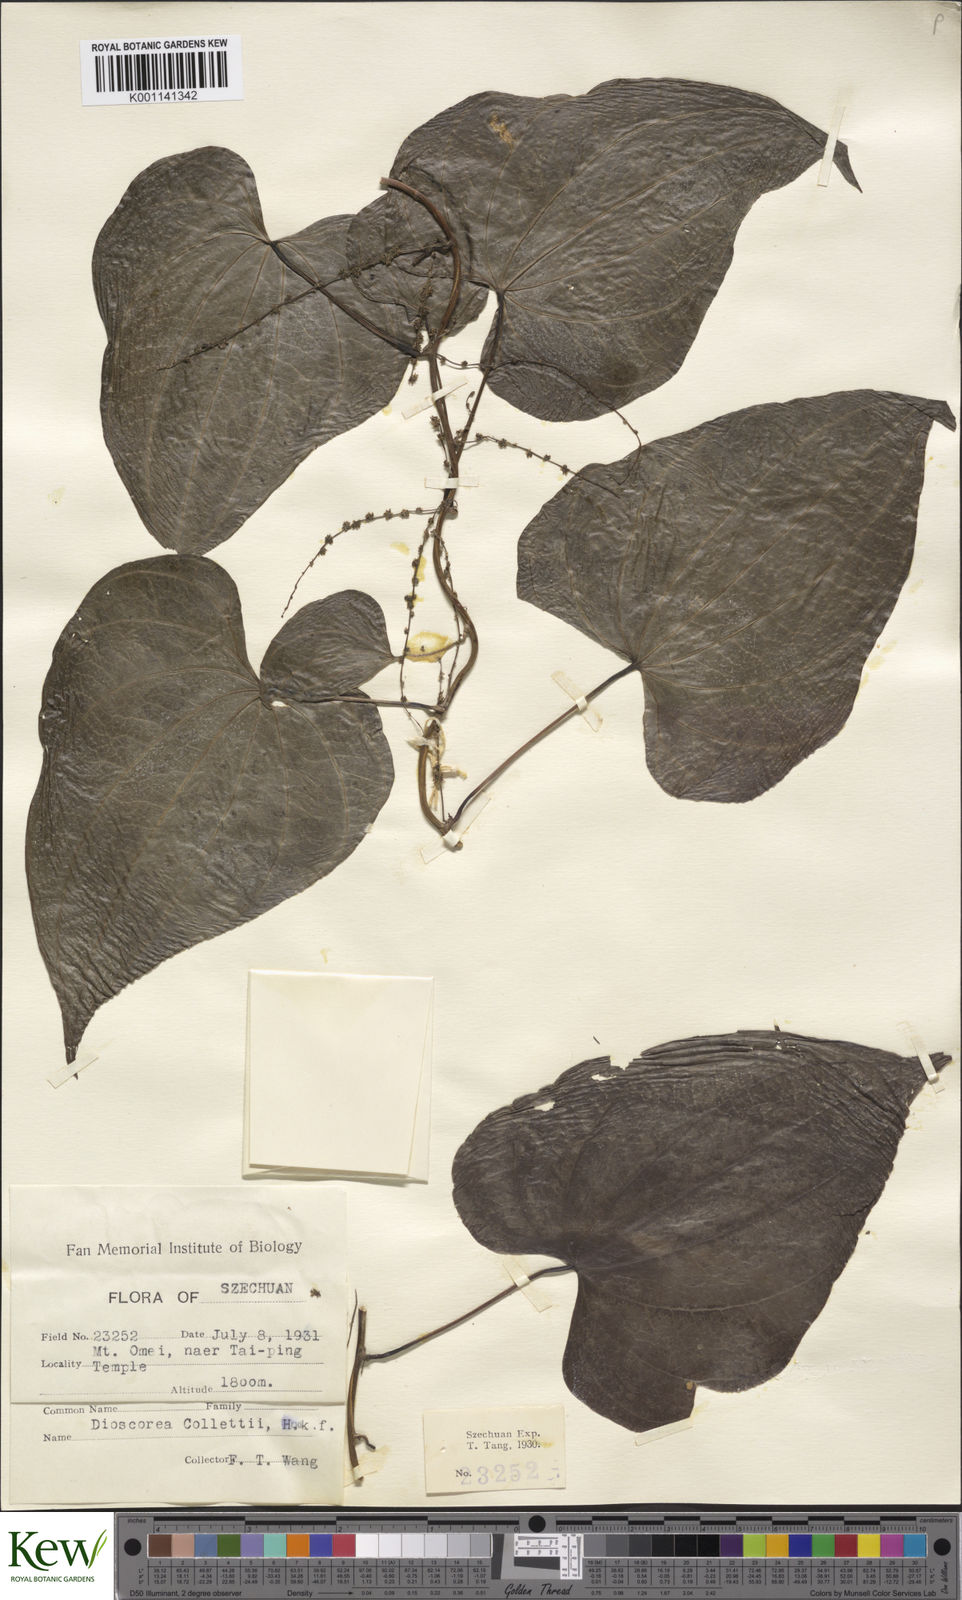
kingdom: Plantae
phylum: Tracheophyta
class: Liliopsida
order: Dioscoreales
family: Dioscoreaceae
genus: Dioscorea
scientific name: Dioscorea collettii
